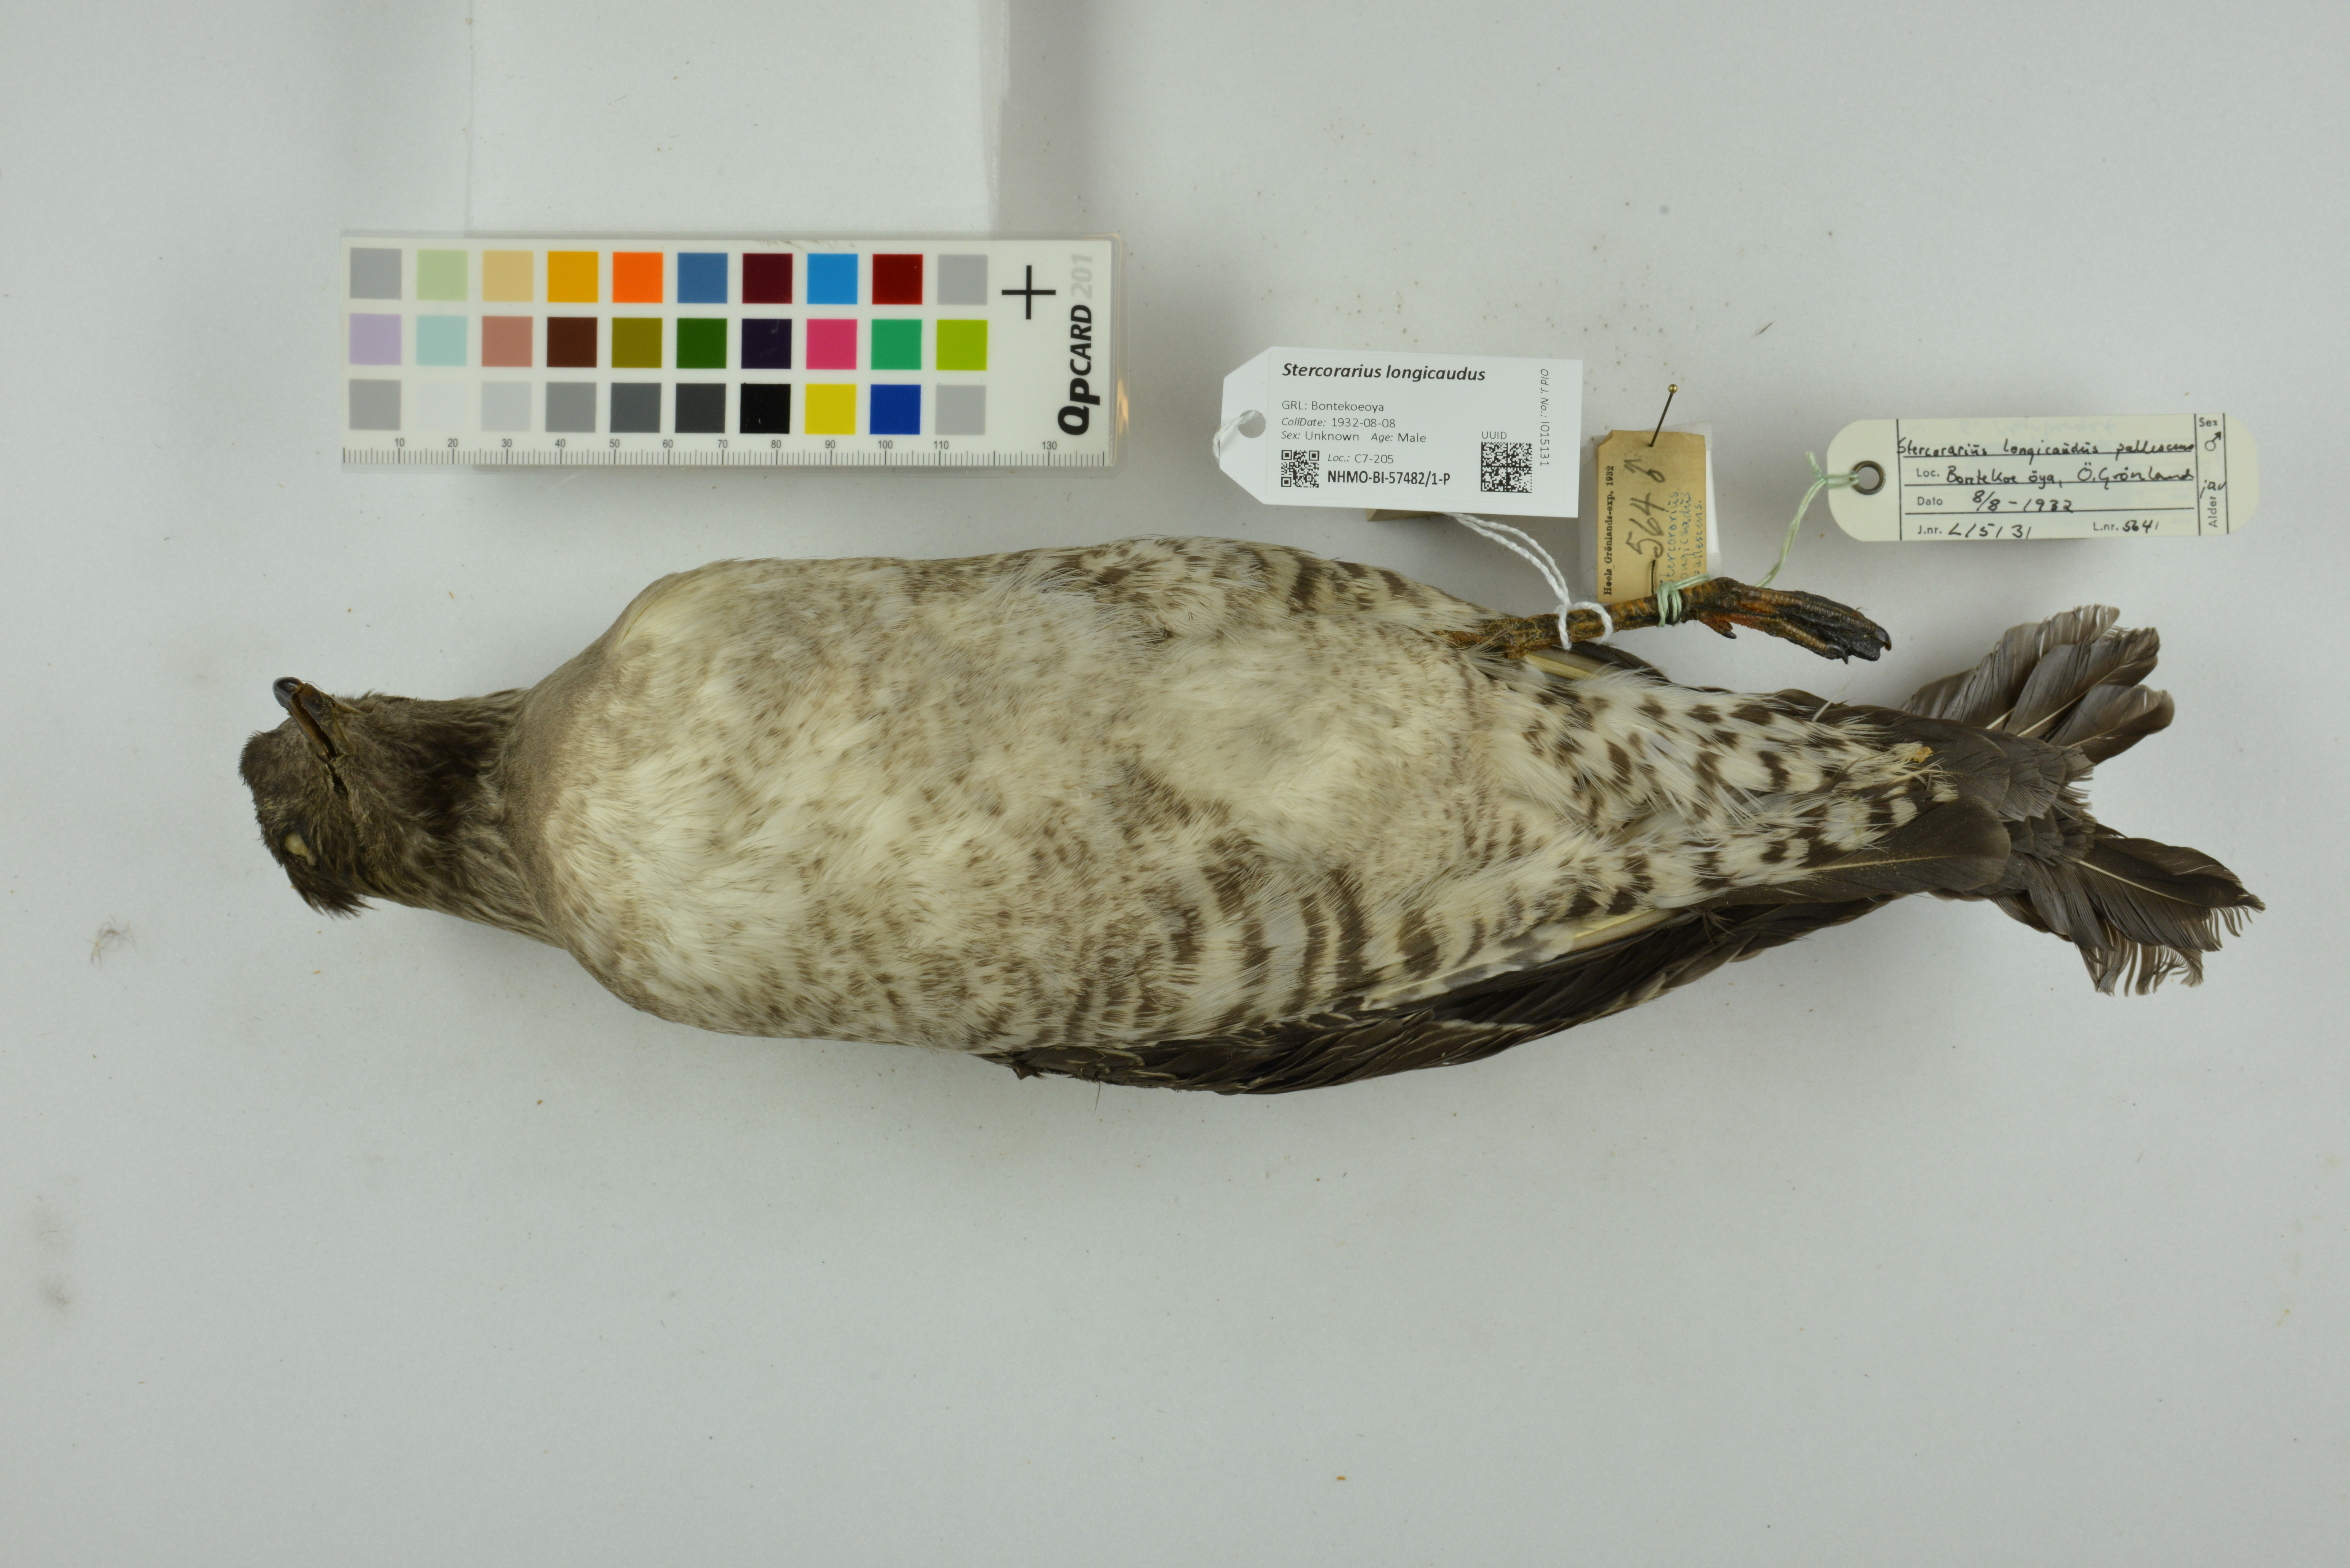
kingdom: Animalia
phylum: Chordata
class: Aves
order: Charadriiformes
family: Stercorariidae
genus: Stercorarius
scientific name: Stercorarius longicaudus
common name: Long-tailed jaeger
